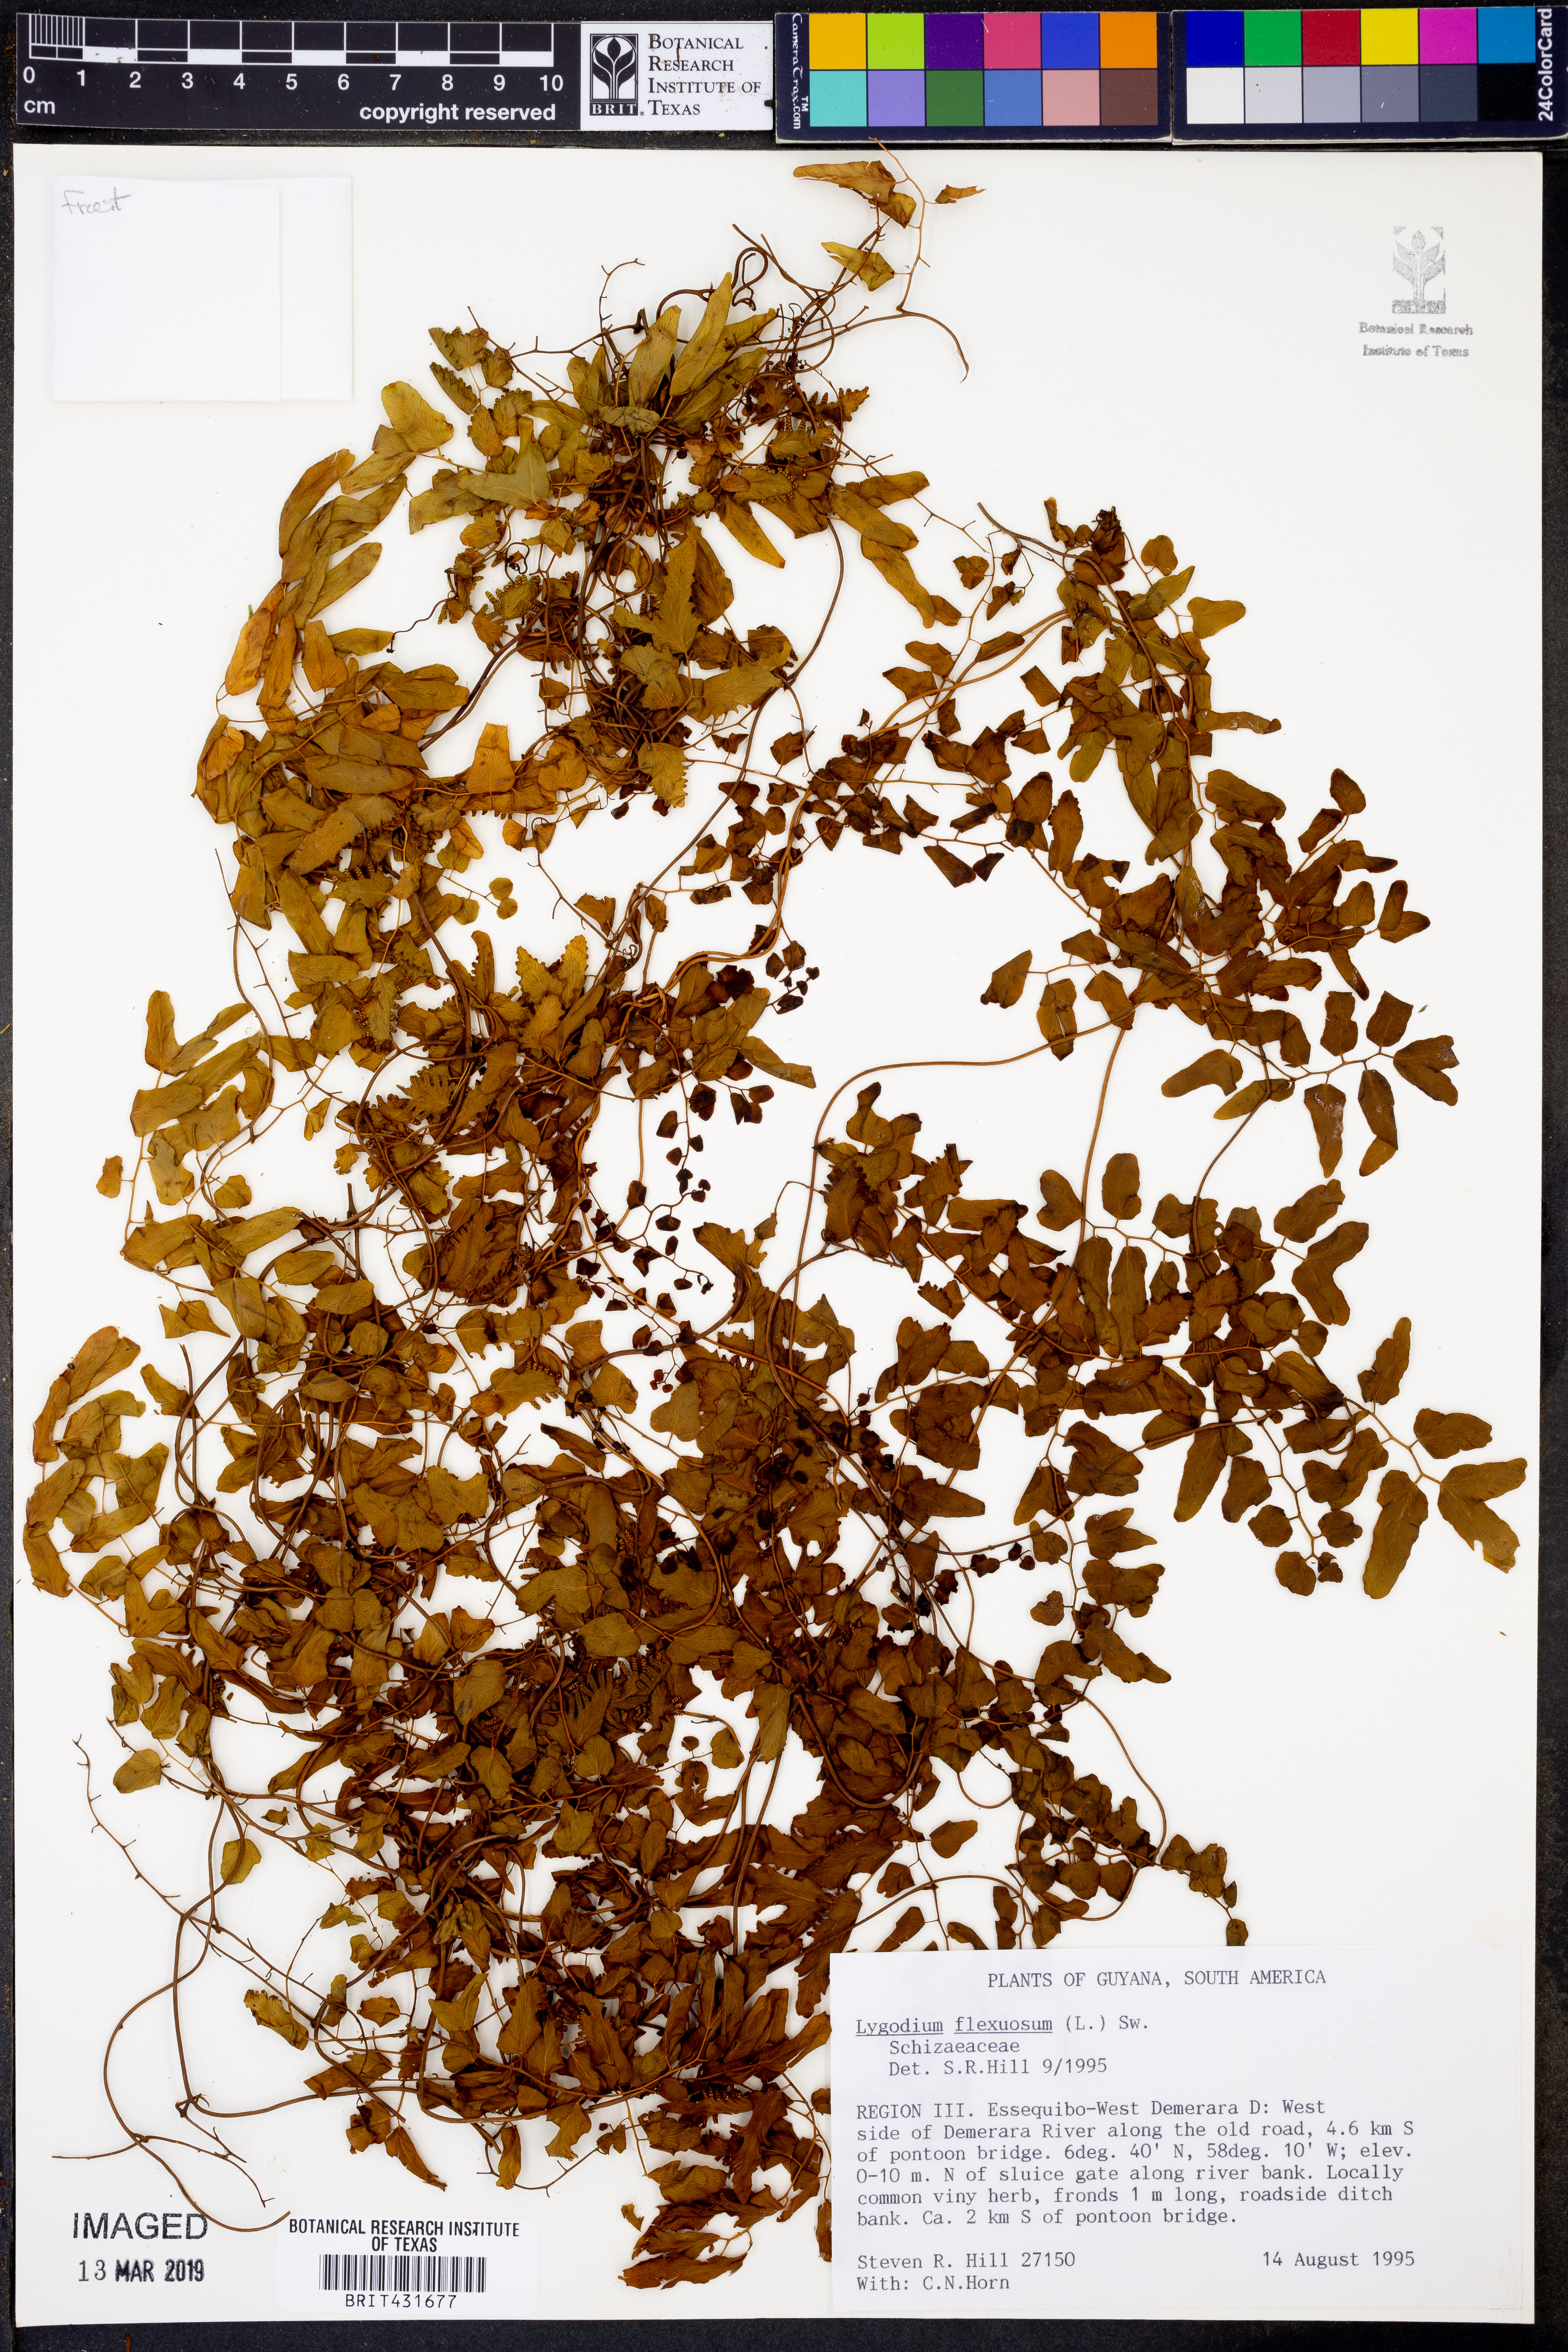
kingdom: Plantae
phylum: Tracheophyta
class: Polypodiopsida
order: Schizaeales
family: Lygodiaceae
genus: Lygodium
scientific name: Lygodium flexuosum
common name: Maidenhair creeper
